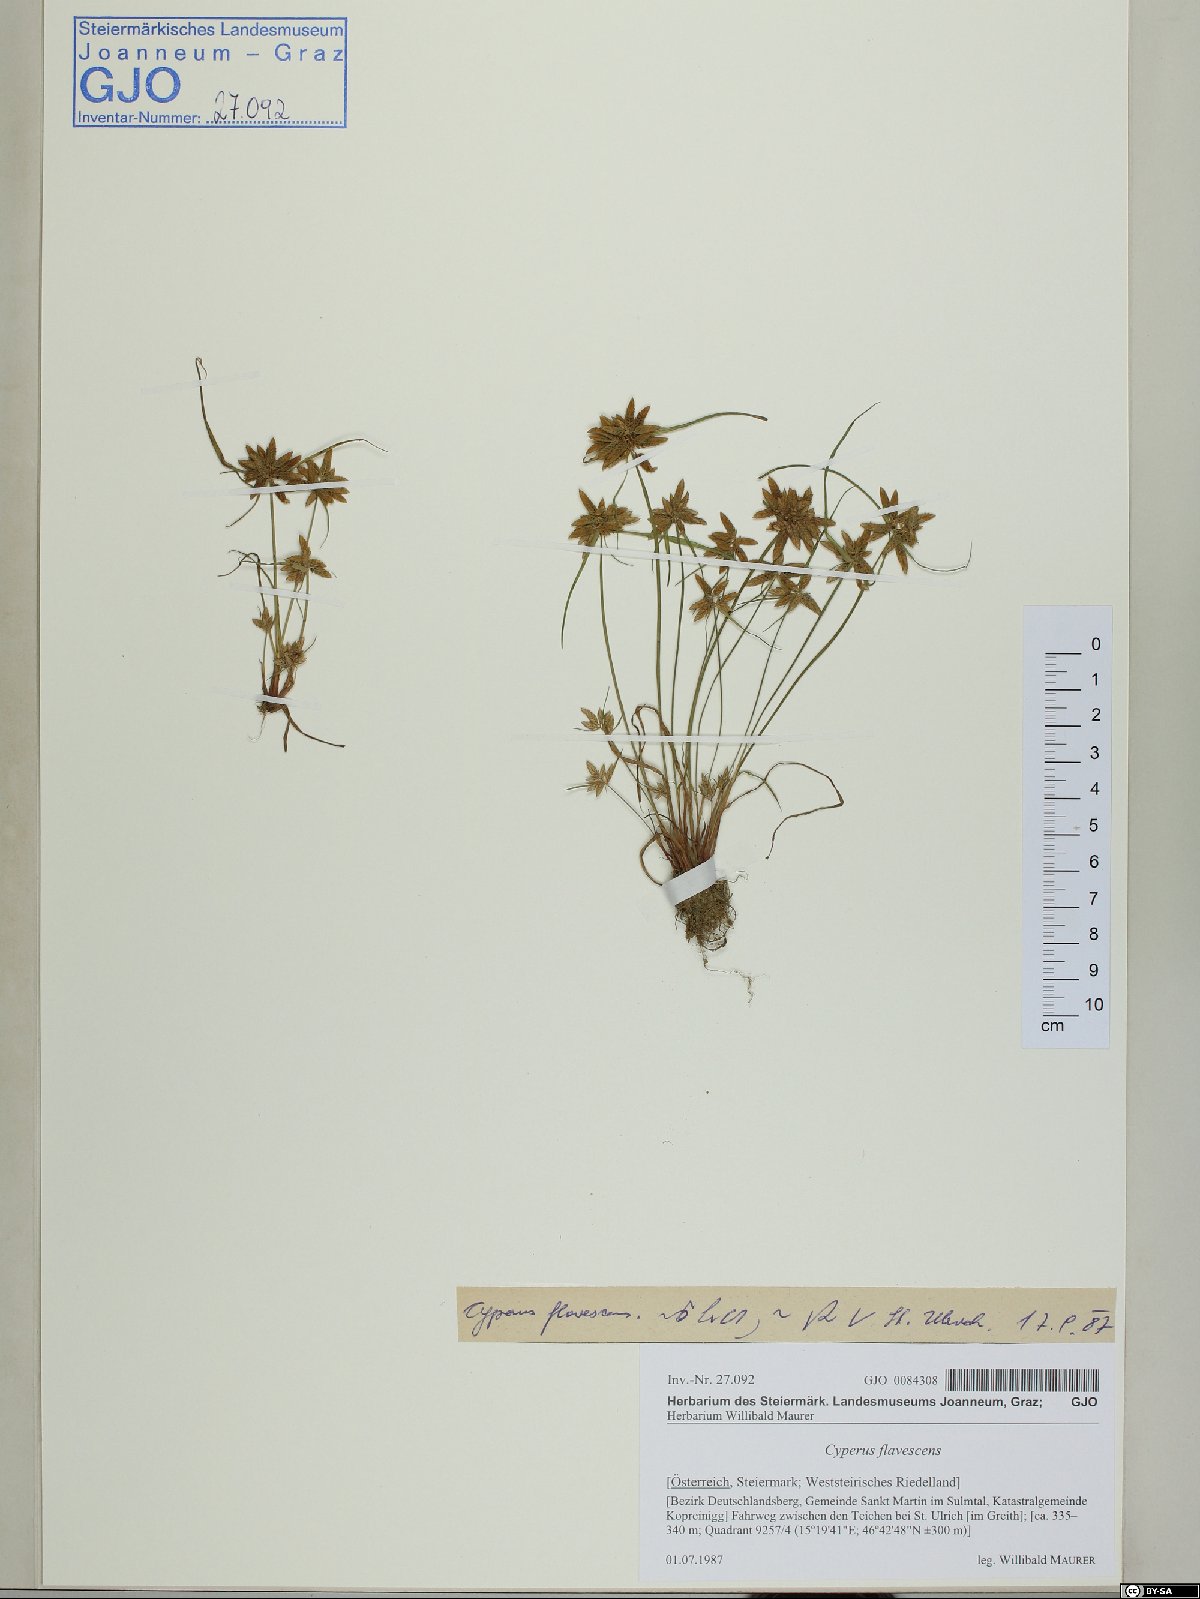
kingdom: Plantae
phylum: Tracheophyta
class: Liliopsida
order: Poales
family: Cyperaceae
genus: Cyperus
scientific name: Cyperus flavescens
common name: Yellow galingale
